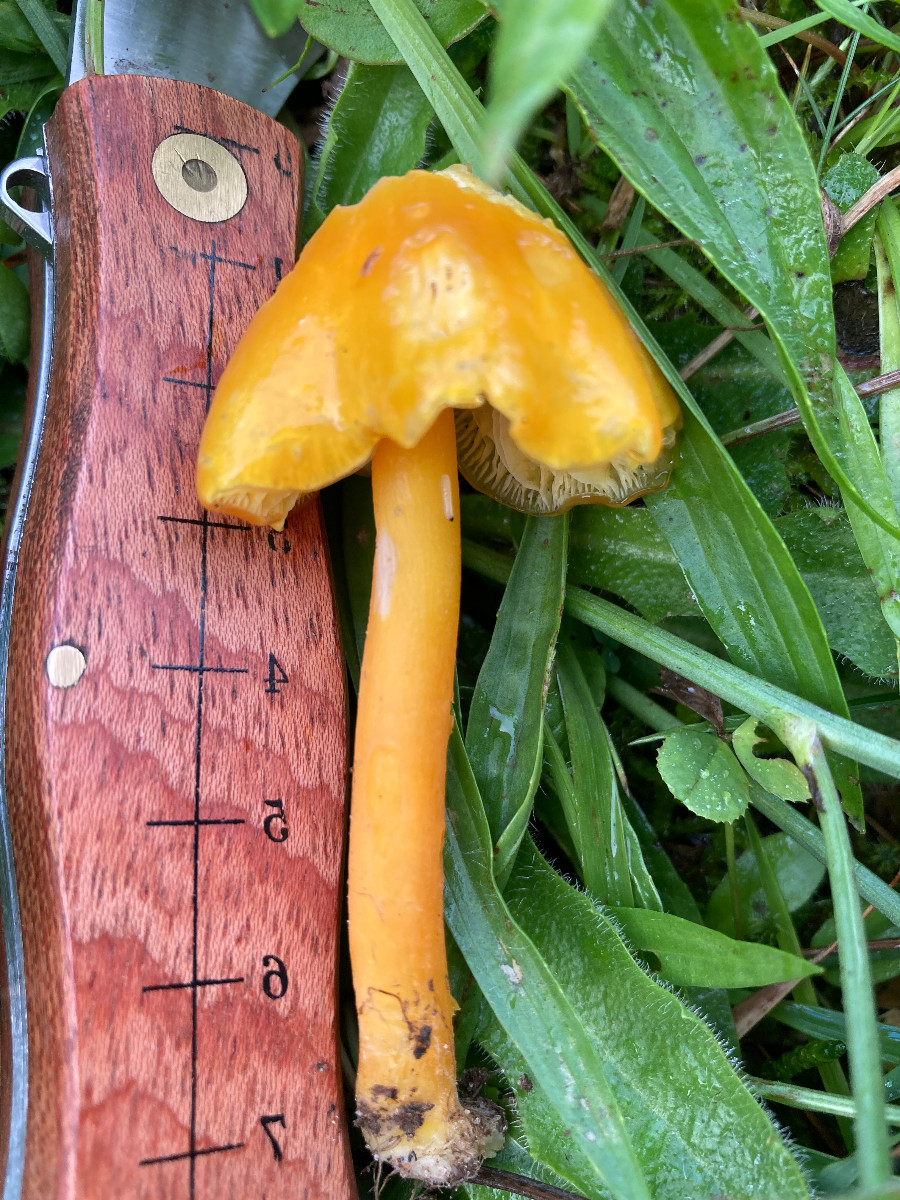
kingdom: Fungi
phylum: Basidiomycota
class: Agaricomycetes
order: Agaricales
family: Hygrophoraceae
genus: Hygrocybe
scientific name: Hygrocybe chlorophana
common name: gul vokshat
